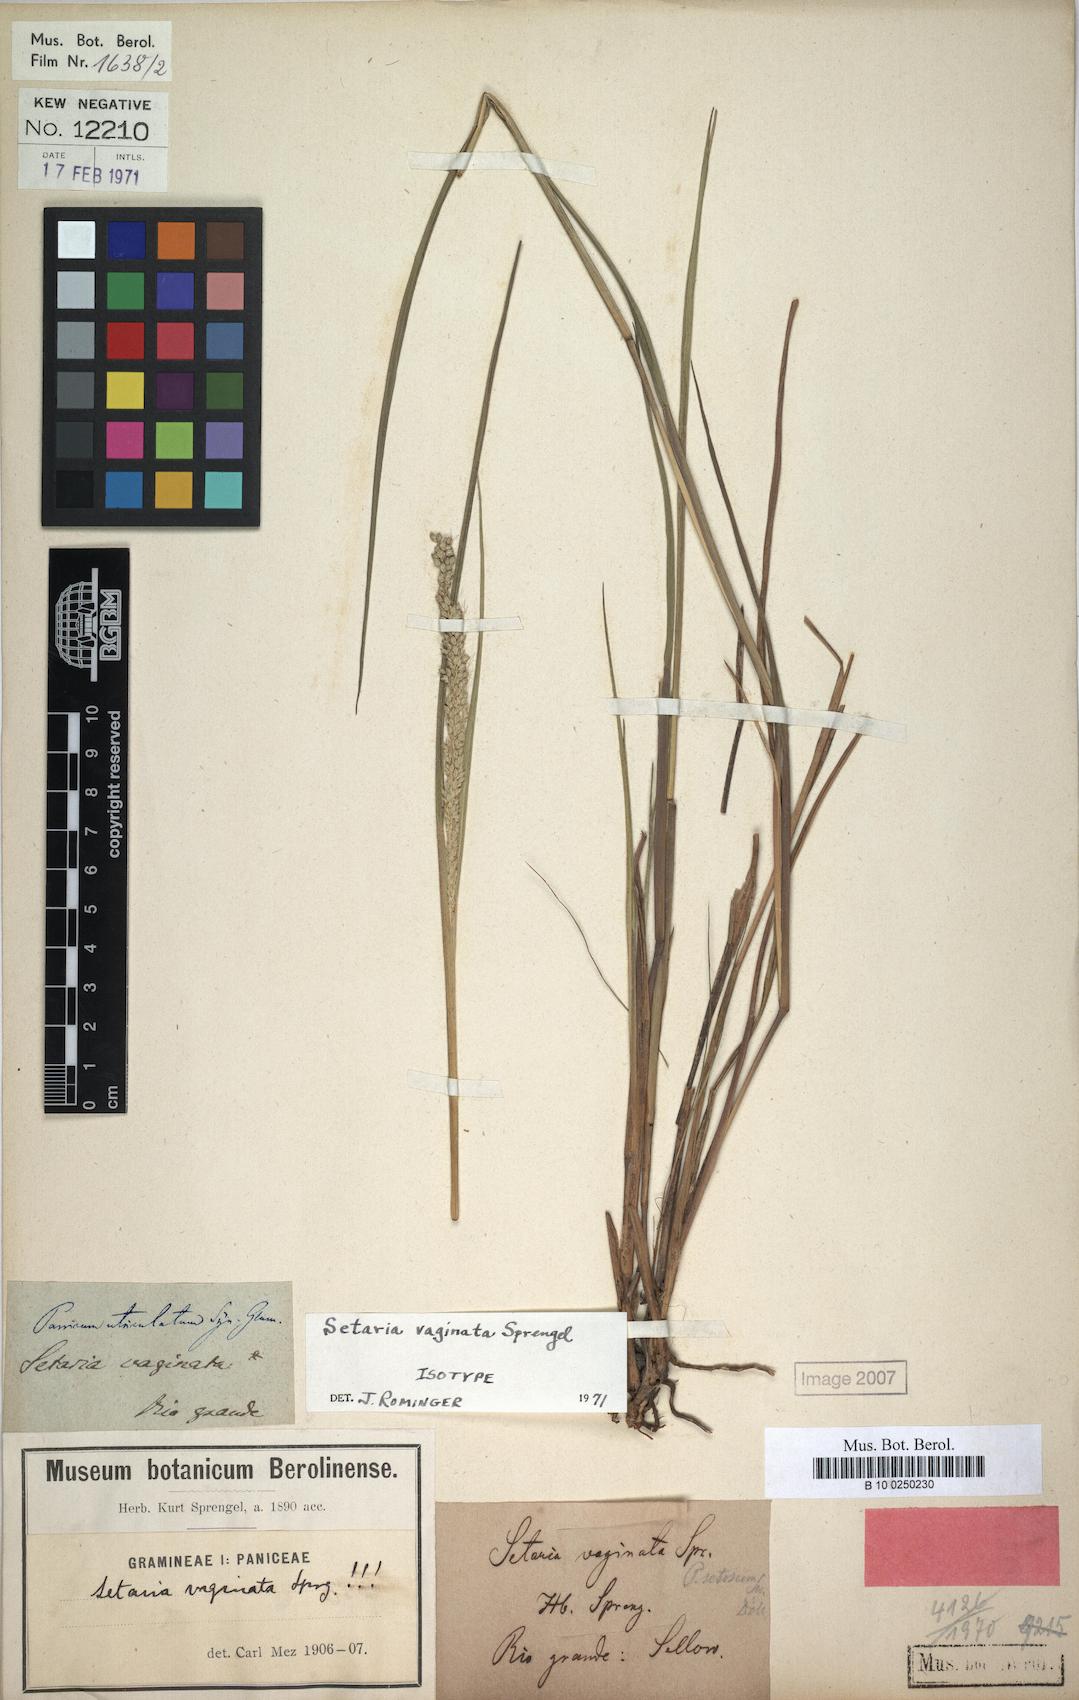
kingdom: Plantae
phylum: Tracheophyta
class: Liliopsida
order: Poales
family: Poaceae
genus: Setaria
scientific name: Setaria vaginata
